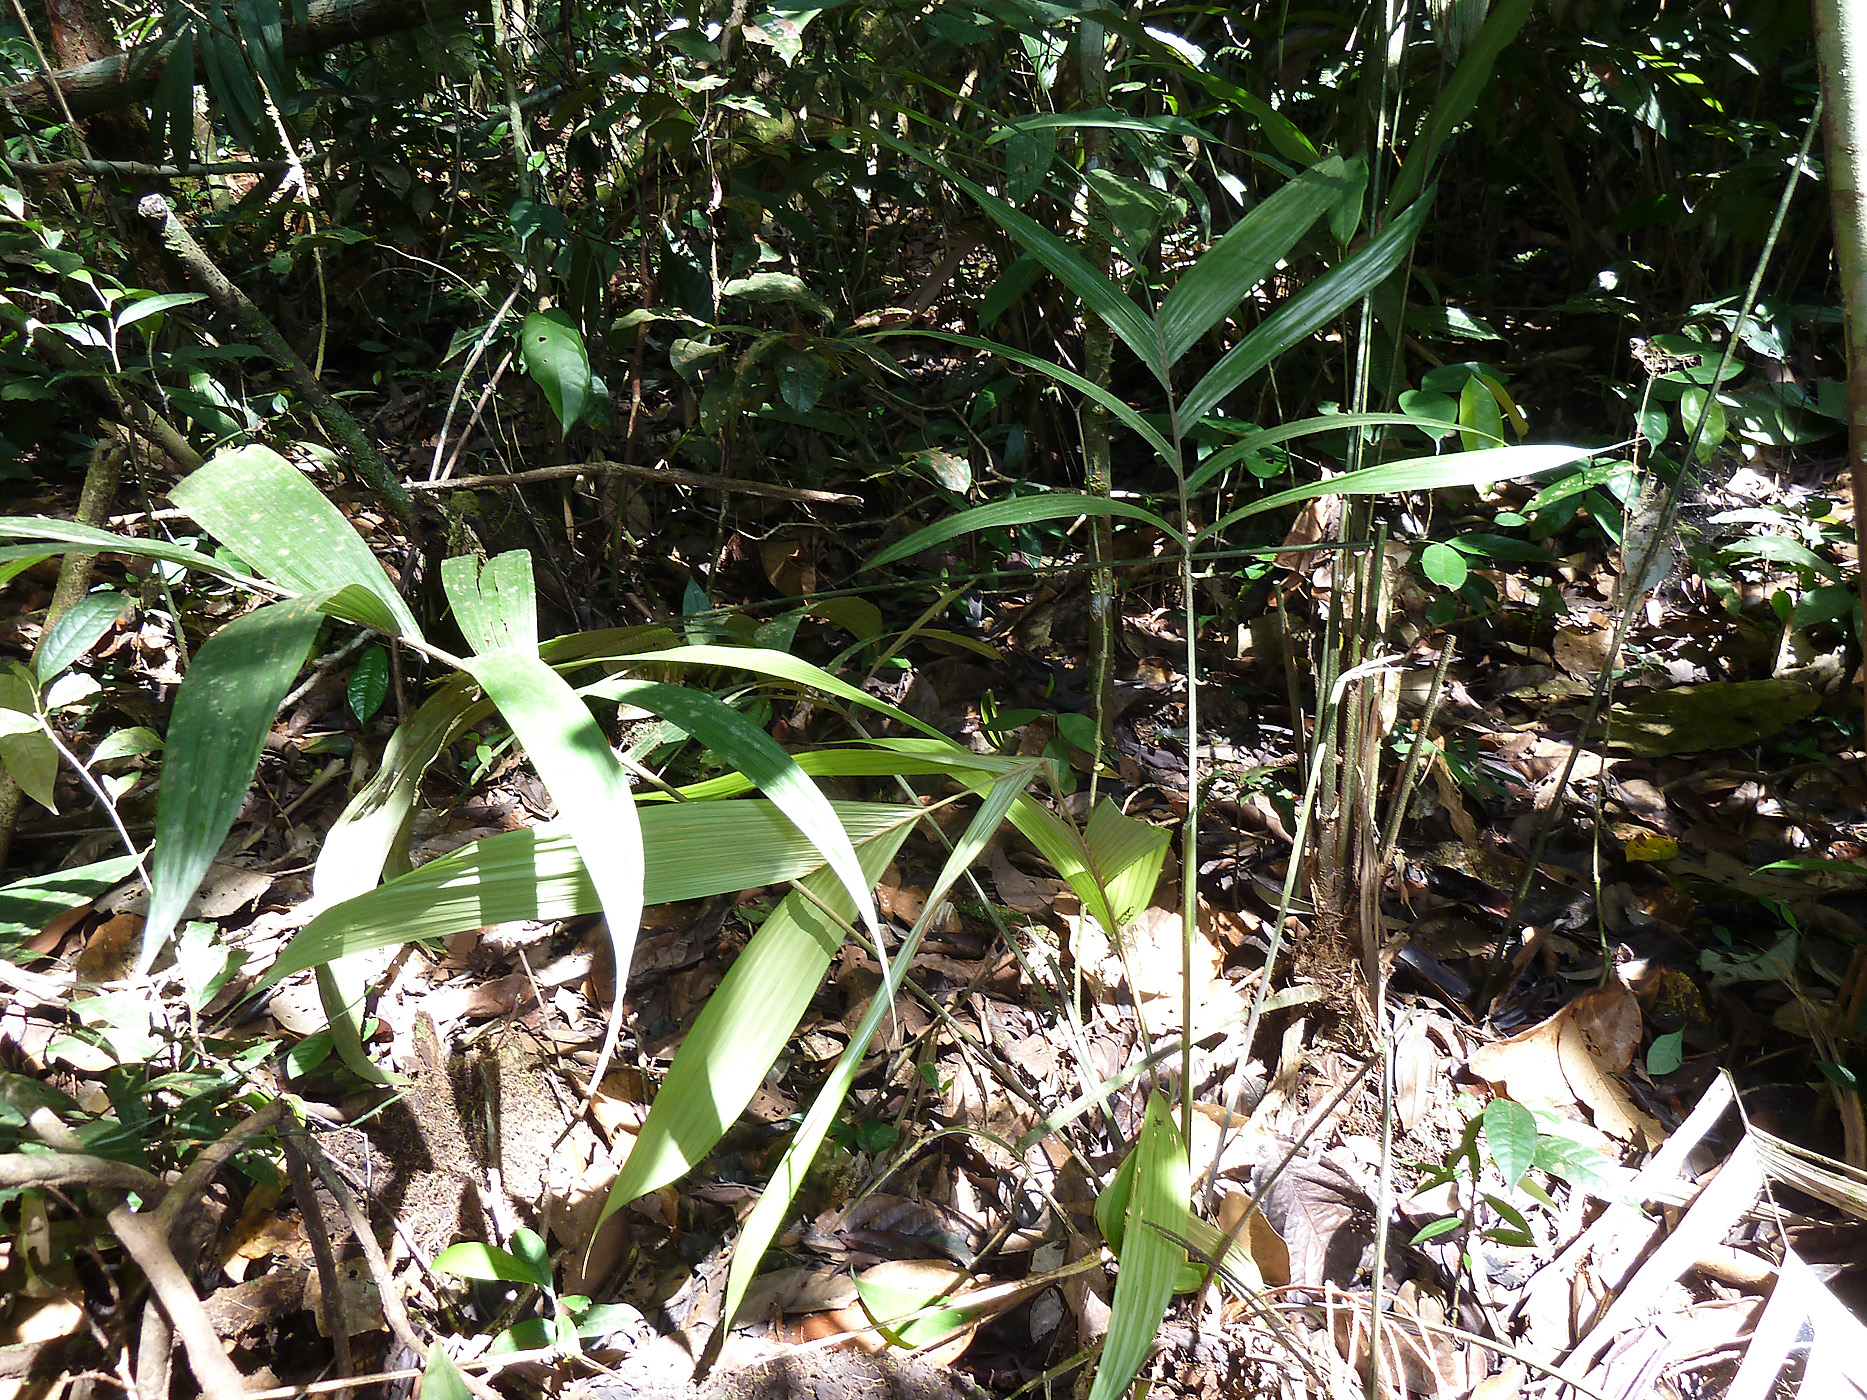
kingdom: Plantae
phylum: Tracheophyta
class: Liliopsida
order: Arecales
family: Arecaceae
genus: Geonoma
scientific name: Geonoma deversa
